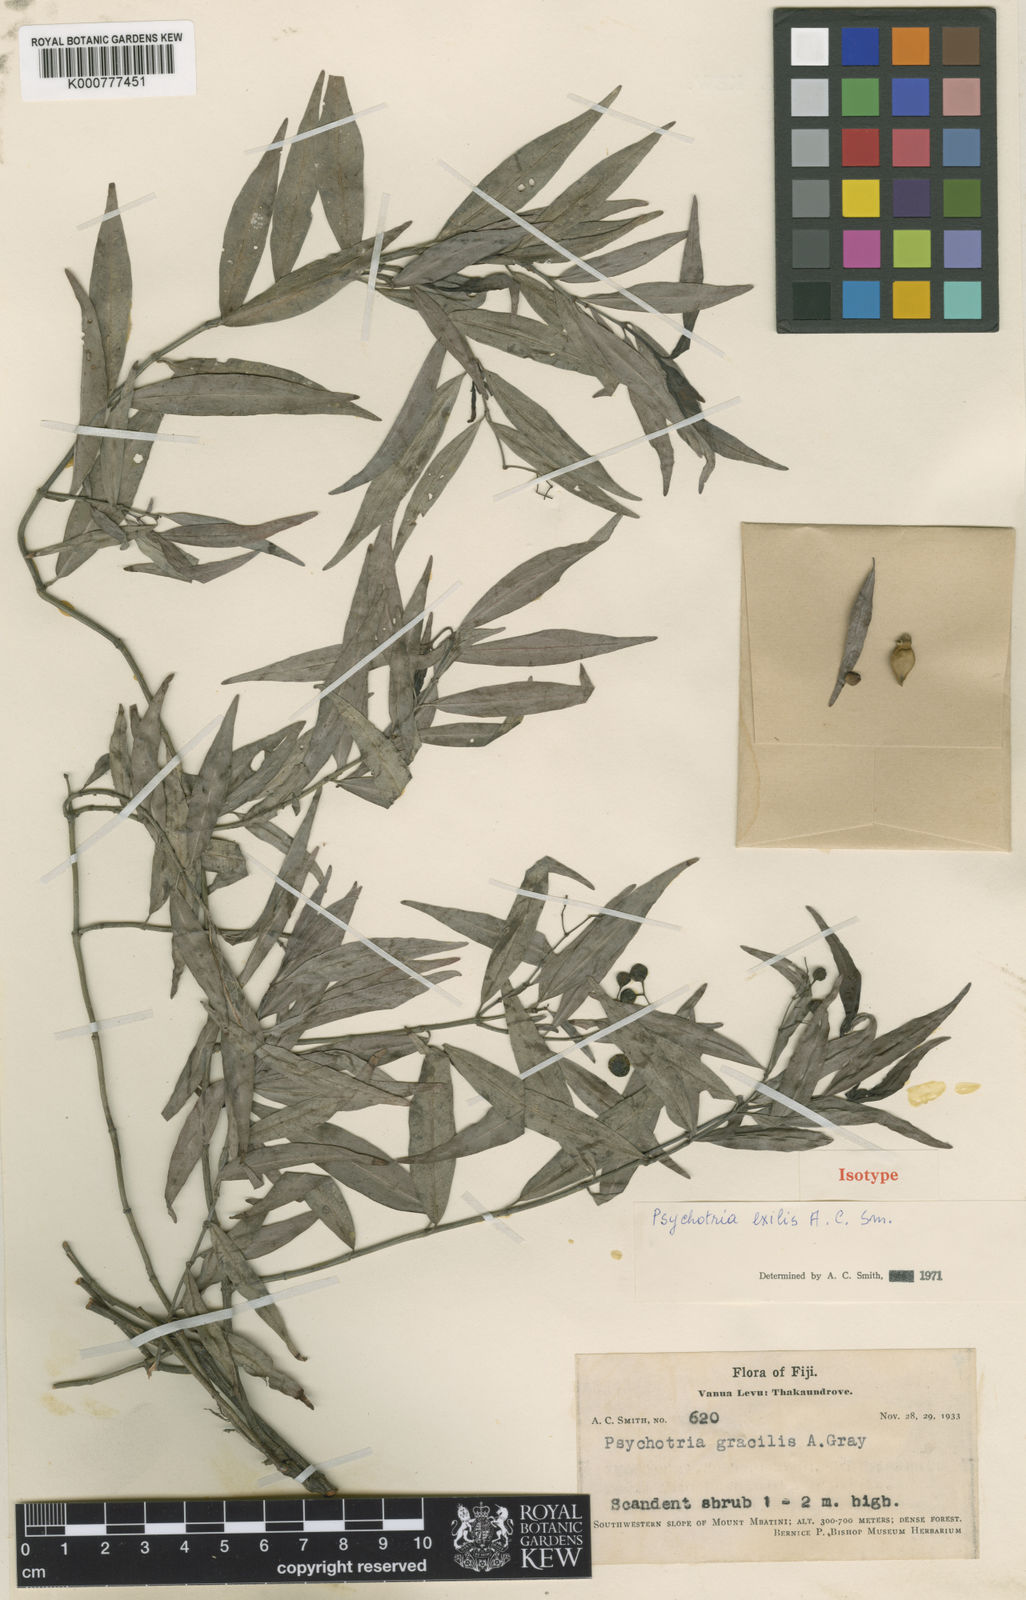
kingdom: Plantae
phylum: Tracheophyta
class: Magnoliopsida
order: Gentianales
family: Rubiaceae
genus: Psychotria
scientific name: Psychotria exilis
